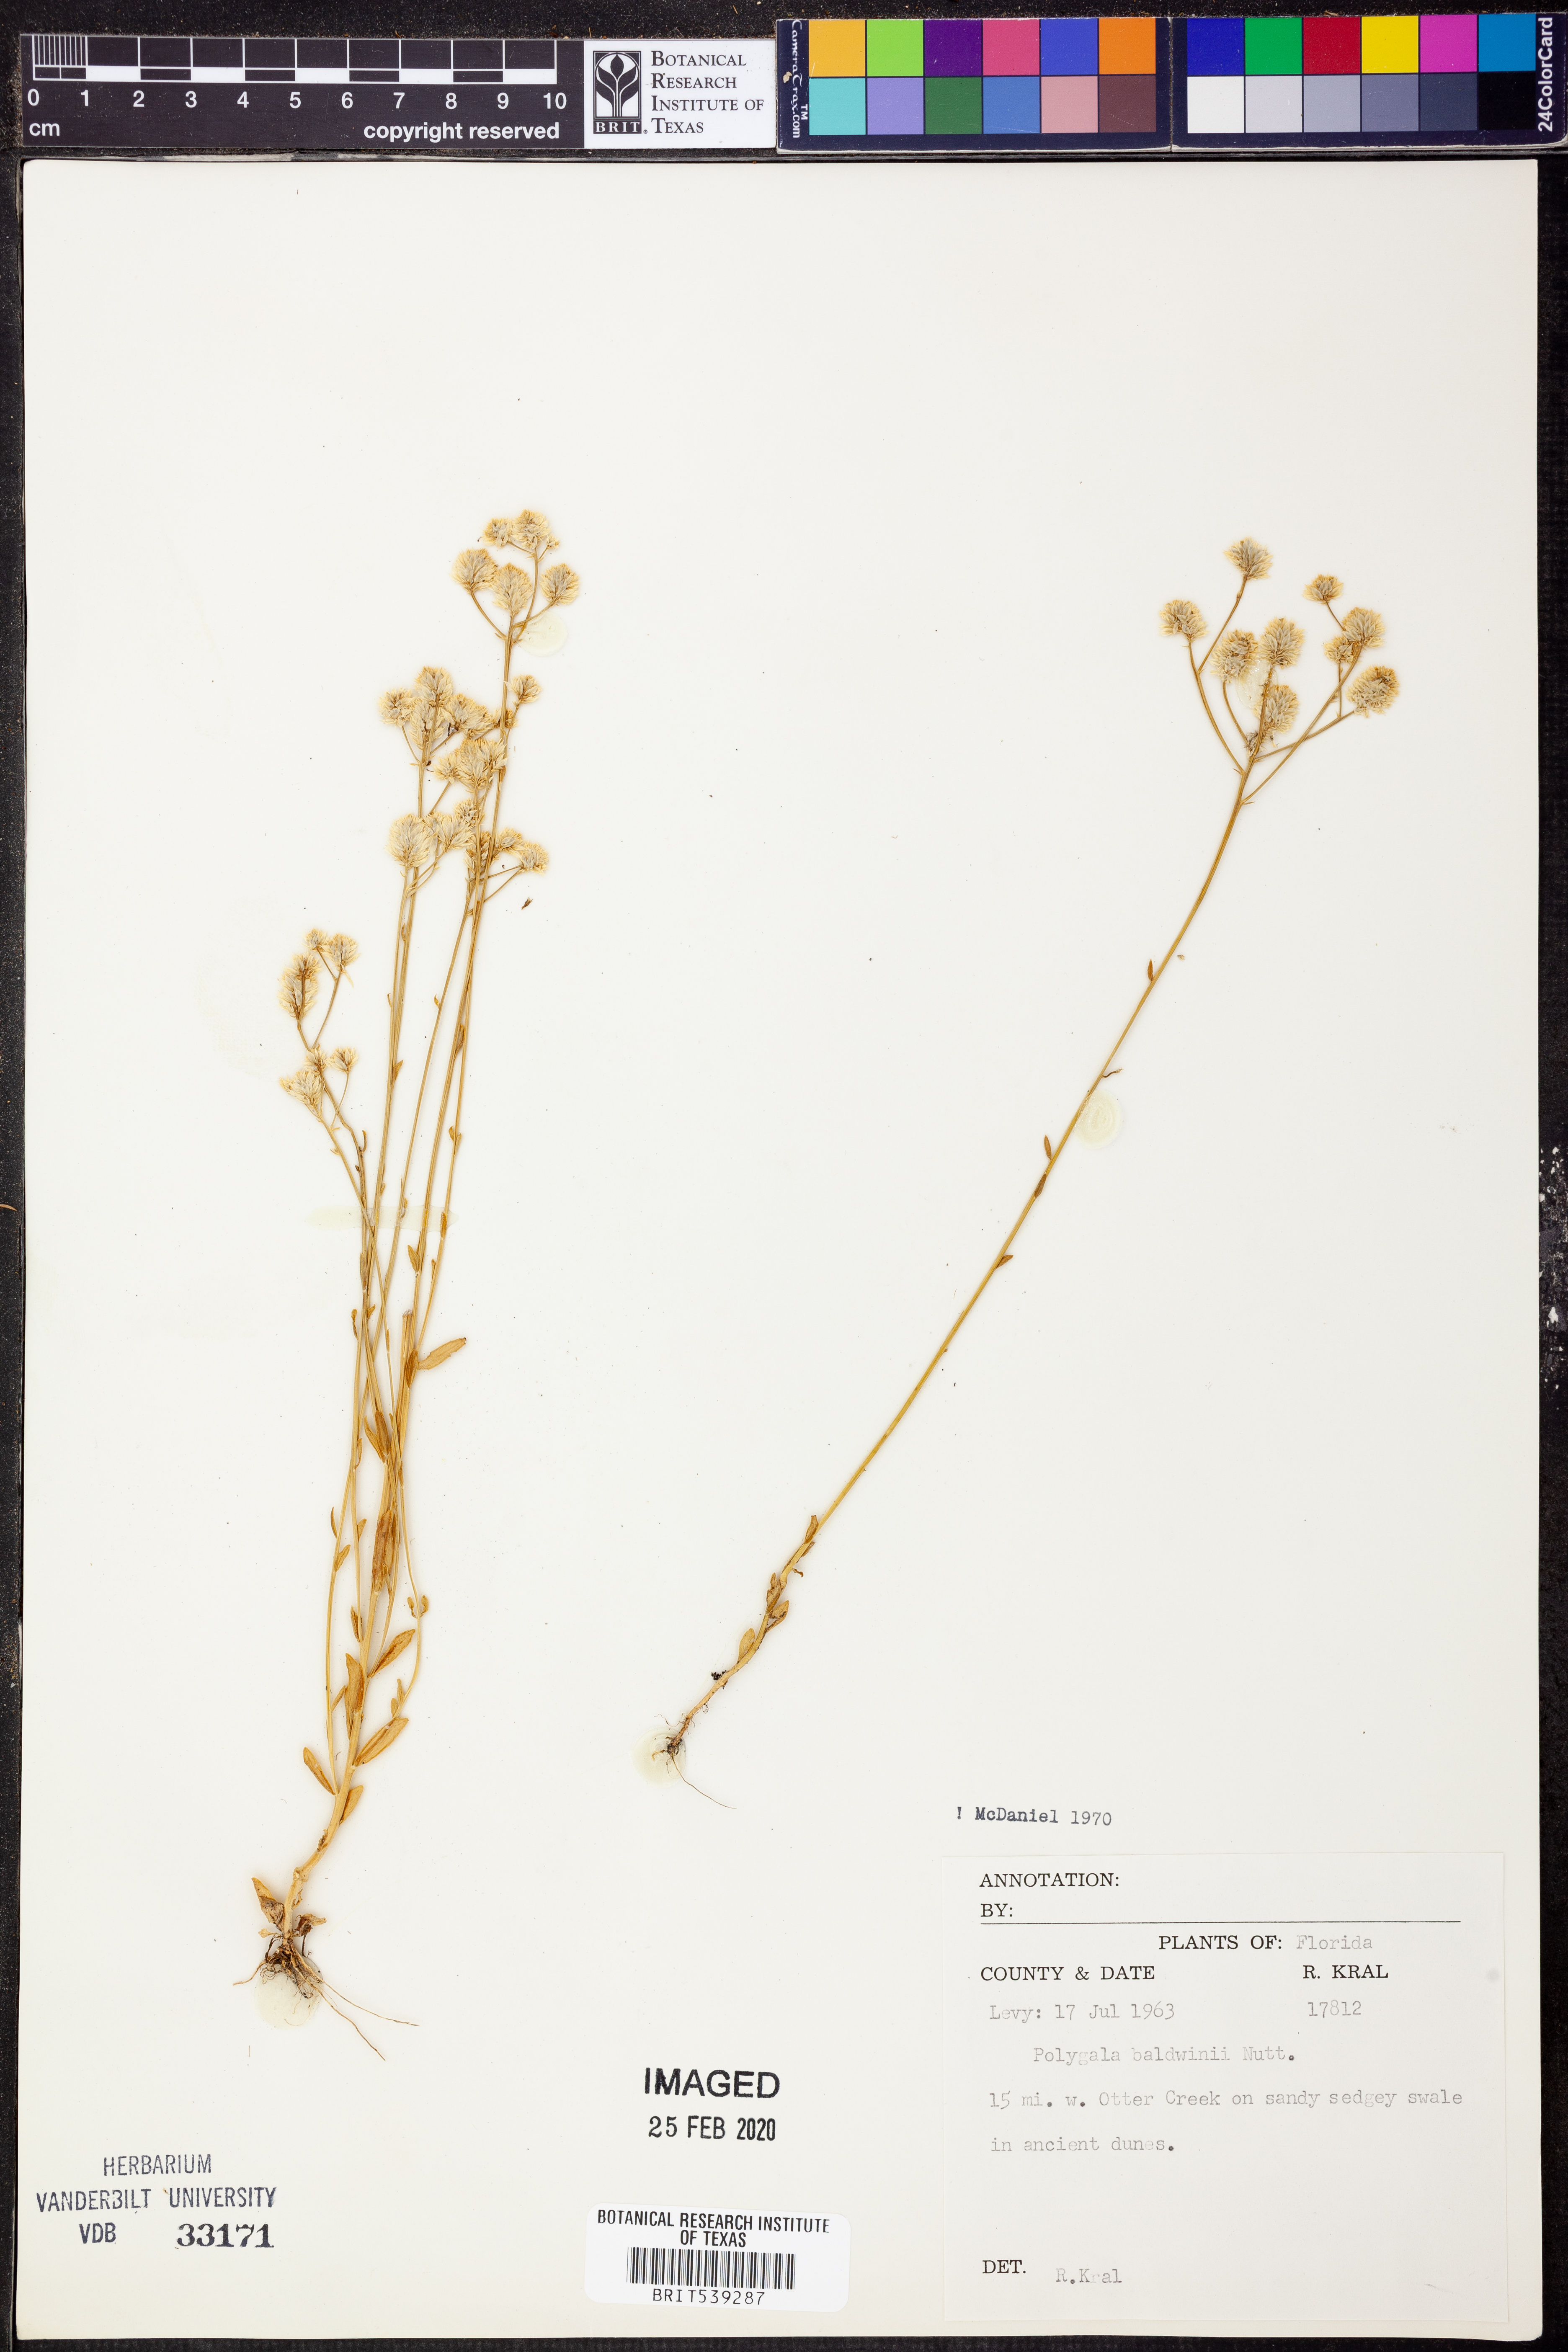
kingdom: Plantae
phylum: Tracheophyta
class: Magnoliopsida
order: Fabales
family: Polygalaceae
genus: Polygala
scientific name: Polygala baldwinii
